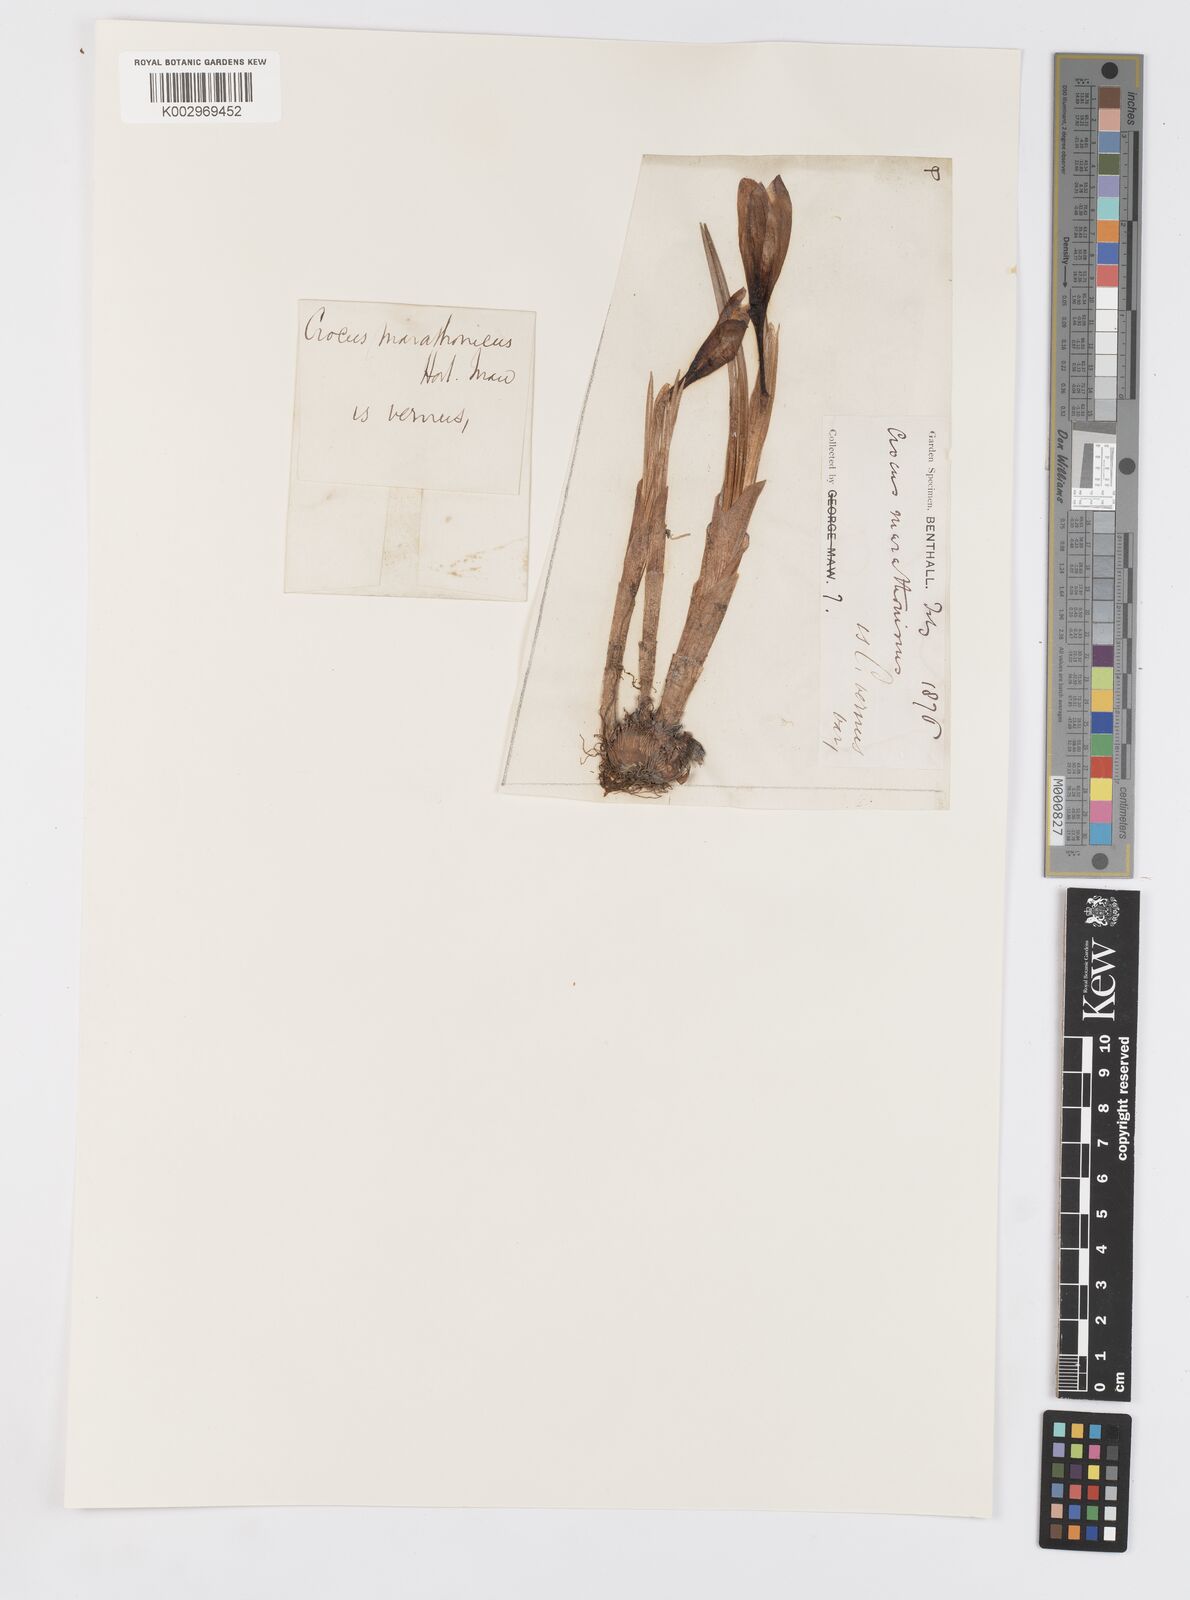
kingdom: Plantae
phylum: Tracheophyta
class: Liliopsida
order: Asparagales
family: Iridaceae
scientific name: Iridaceae
